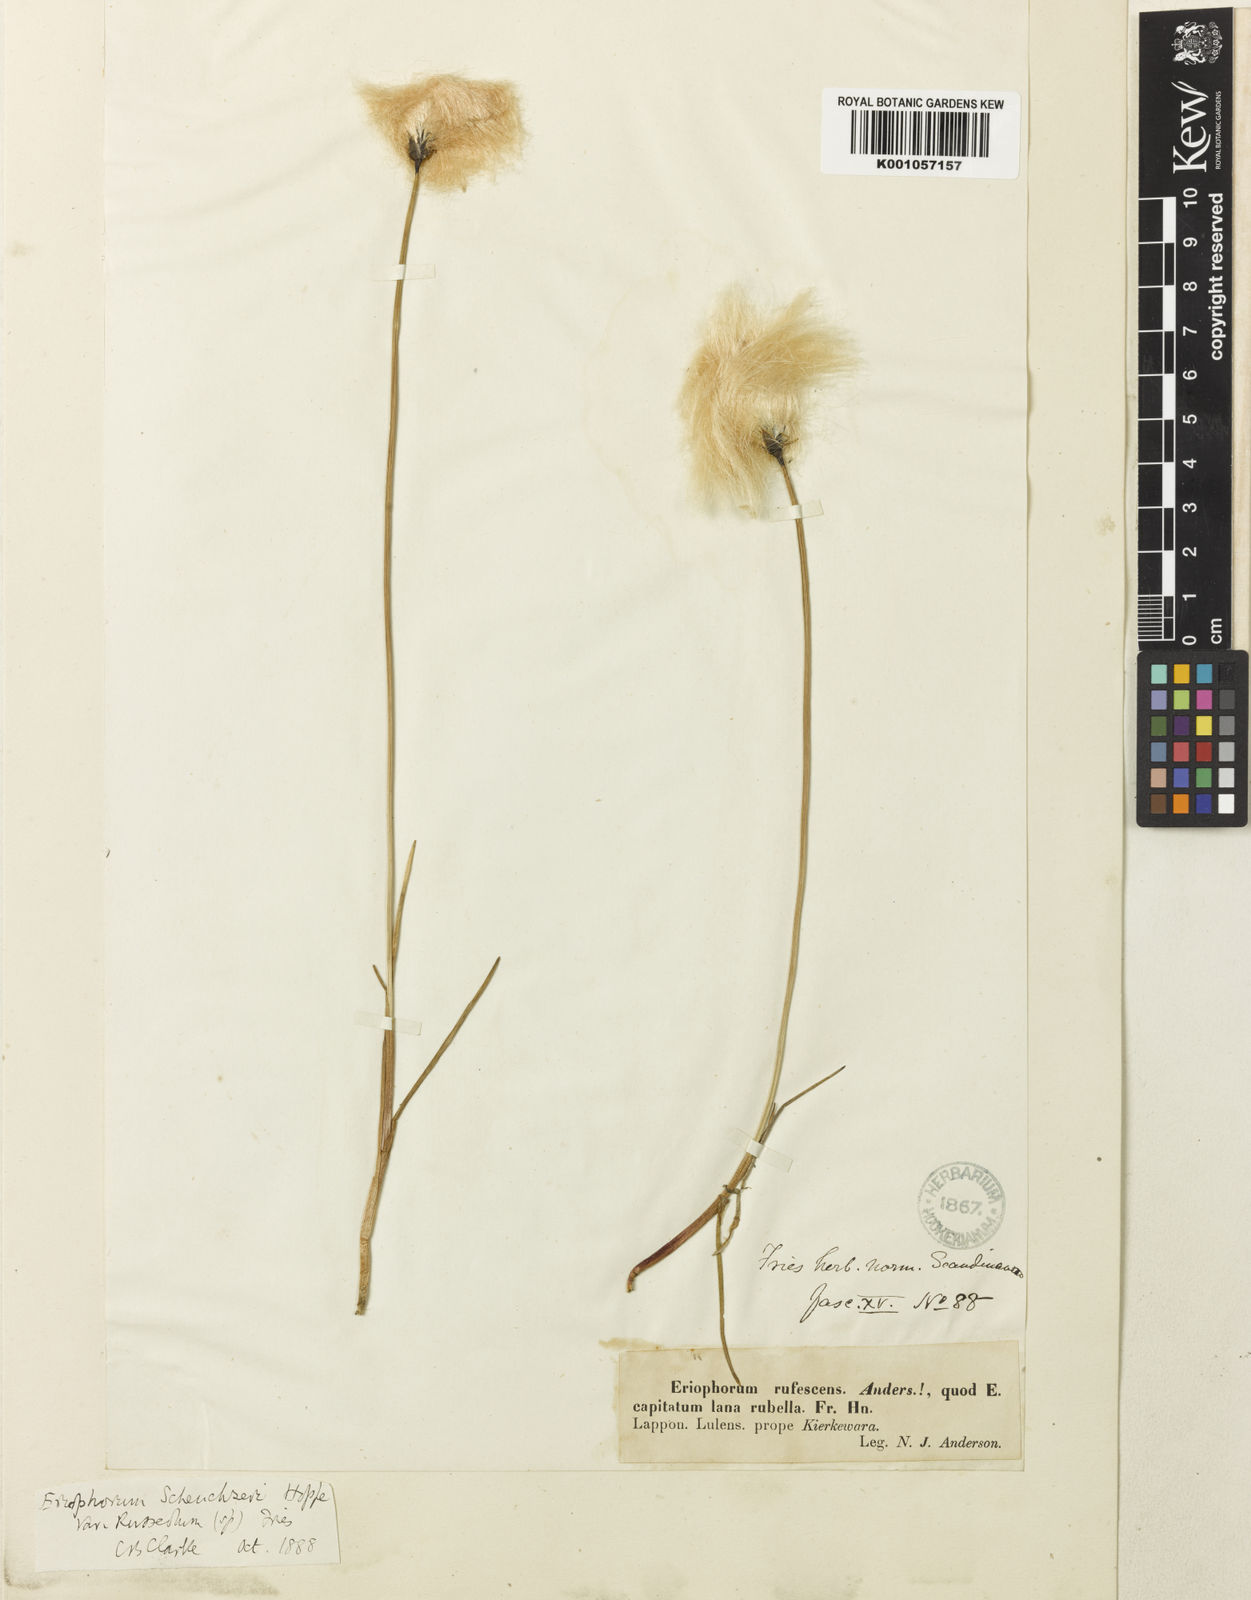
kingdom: Plantae
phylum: Tracheophyta
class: Liliopsida
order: Poales
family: Cyperaceae
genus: Eriophorum
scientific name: Eriophorum scheuchzeri
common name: Scheuchzer's cottongrass
